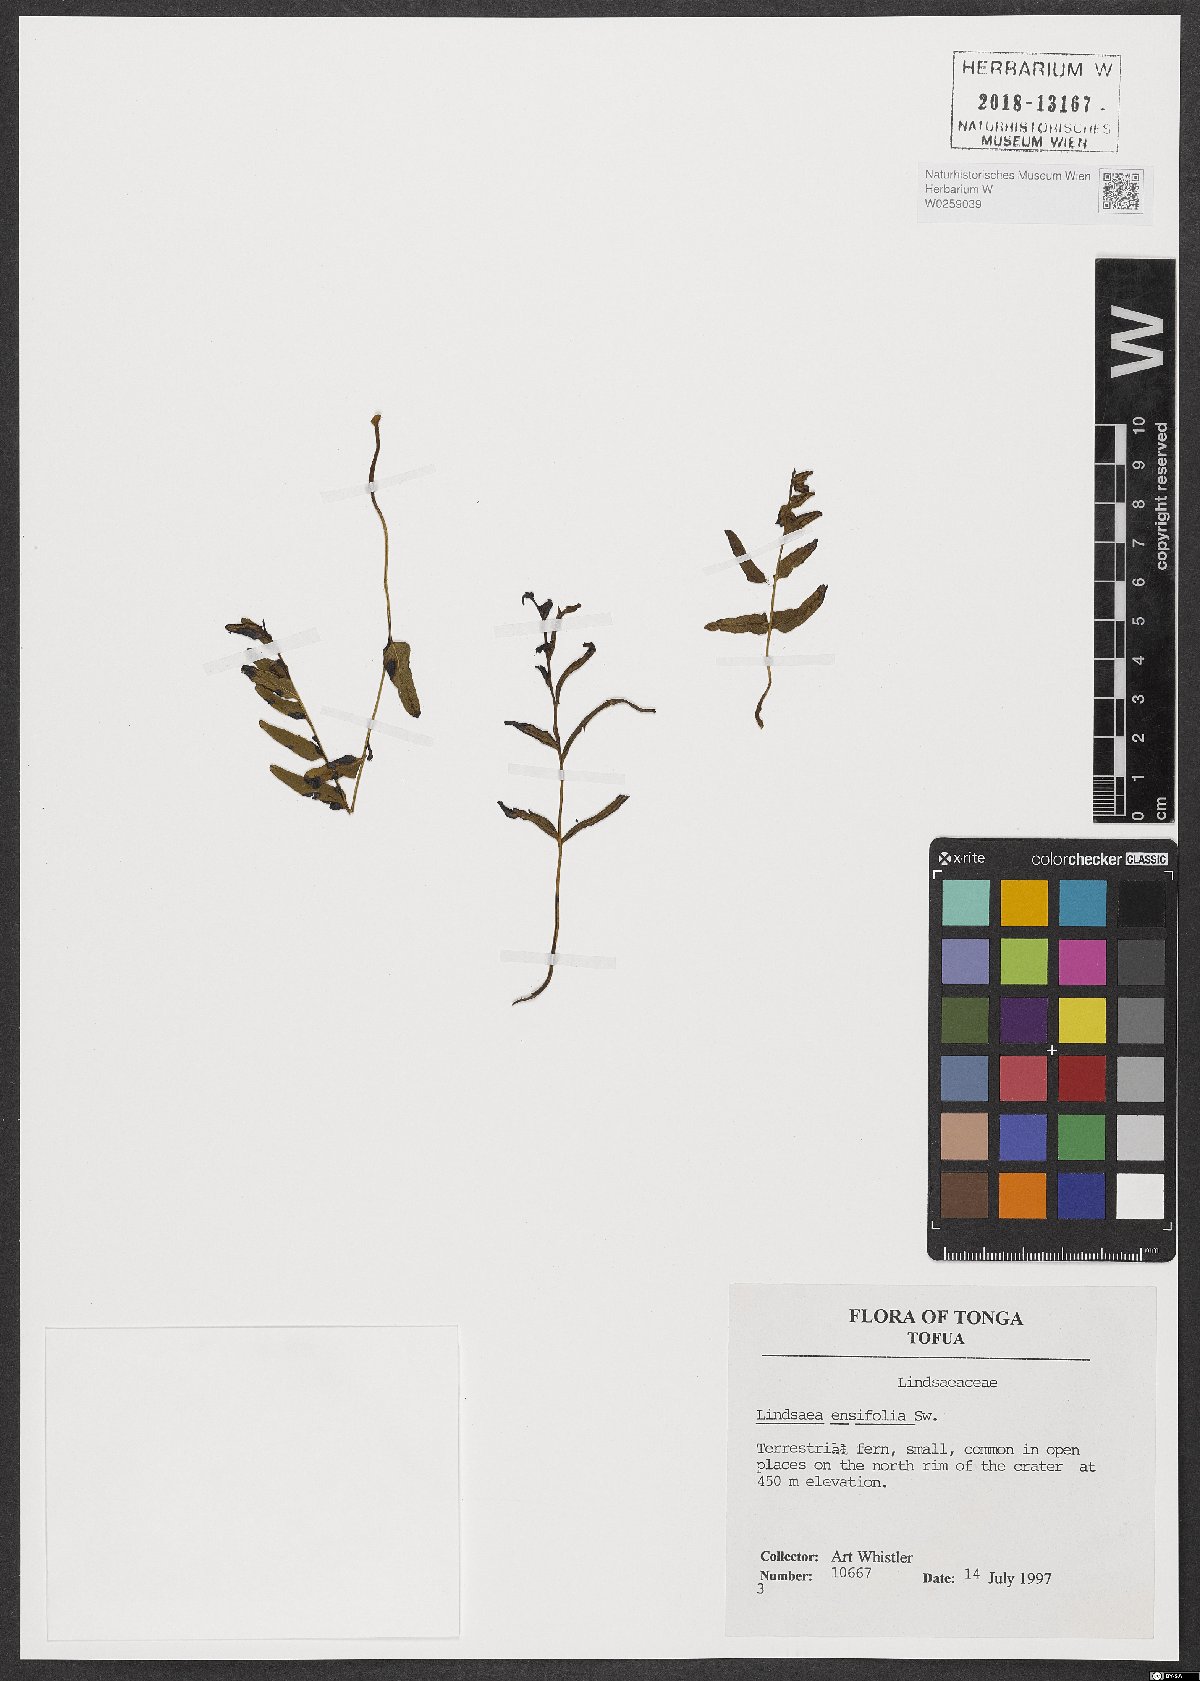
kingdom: Plantae
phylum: Tracheophyta
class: Polypodiopsida
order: Polypodiales
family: Lindsaeaceae
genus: Lindsaea
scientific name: Lindsaea ensifolia
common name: Graceful necklace fern
